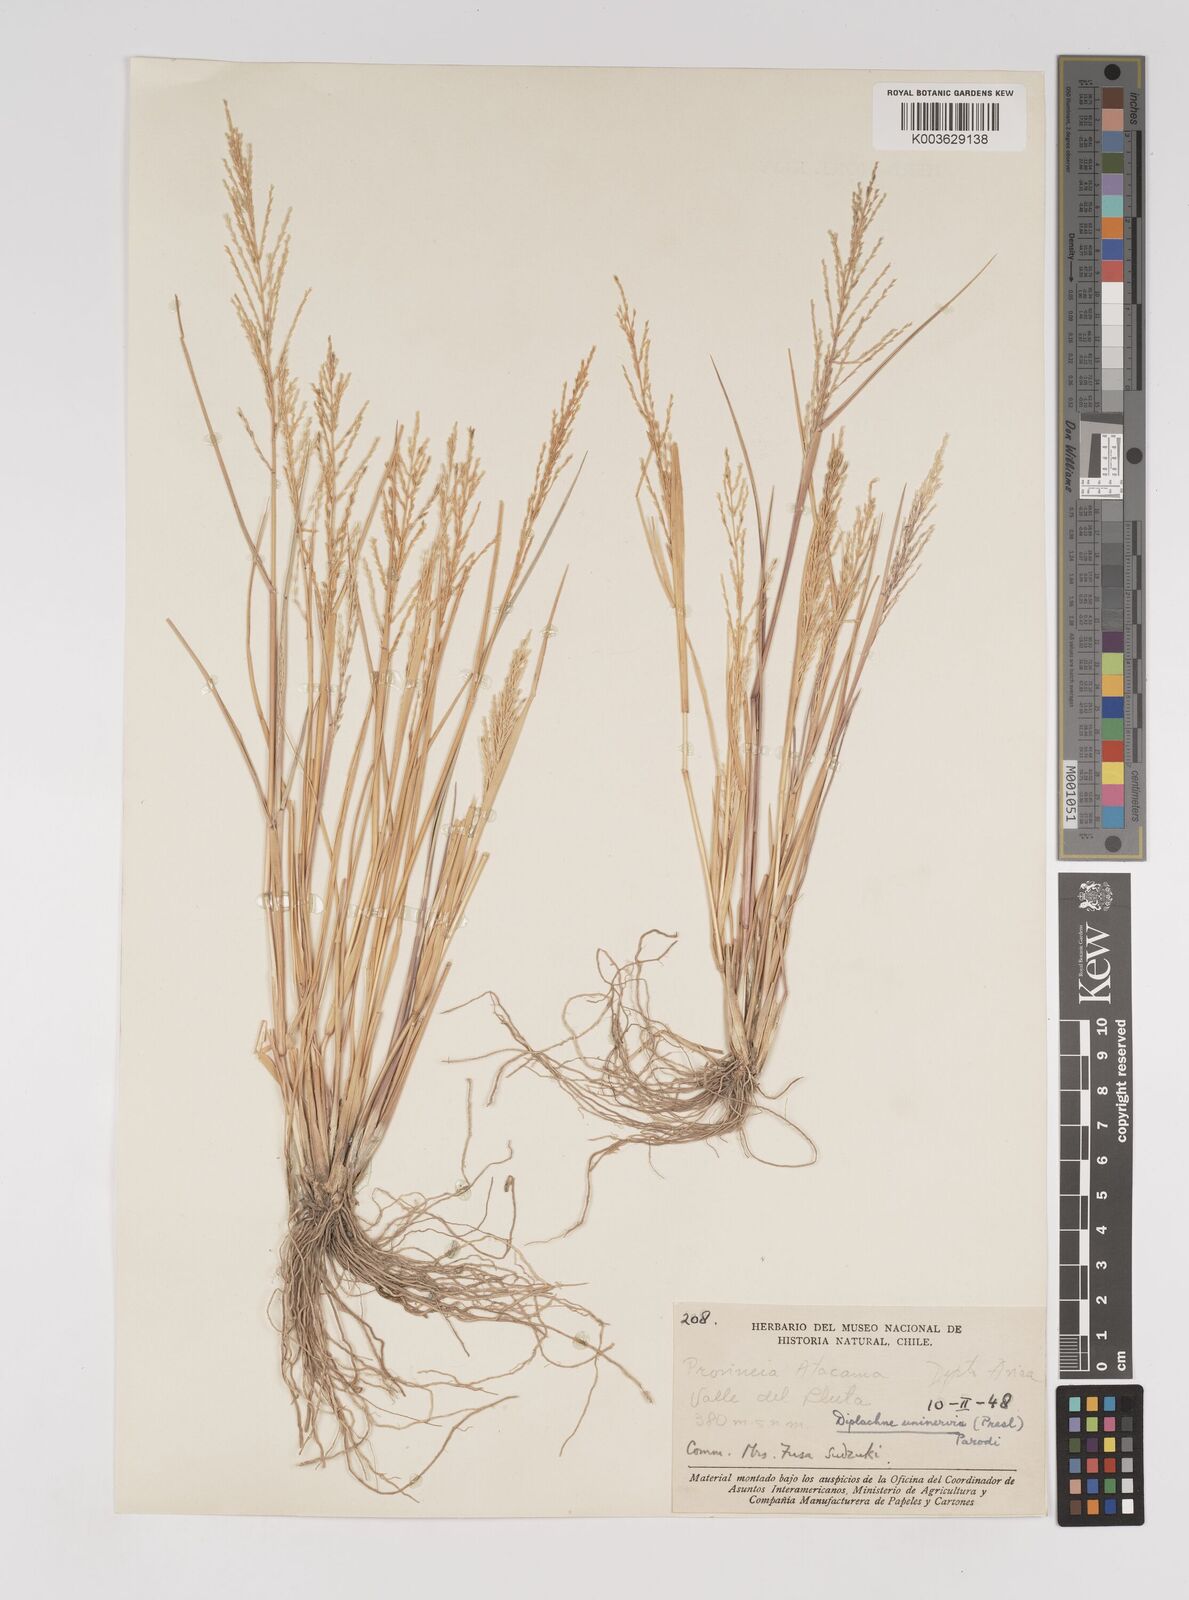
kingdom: Plantae
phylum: Tracheophyta
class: Liliopsida
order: Poales
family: Poaceae
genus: Diplachne
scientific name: Diplachne fusca
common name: Brown beetle grass
